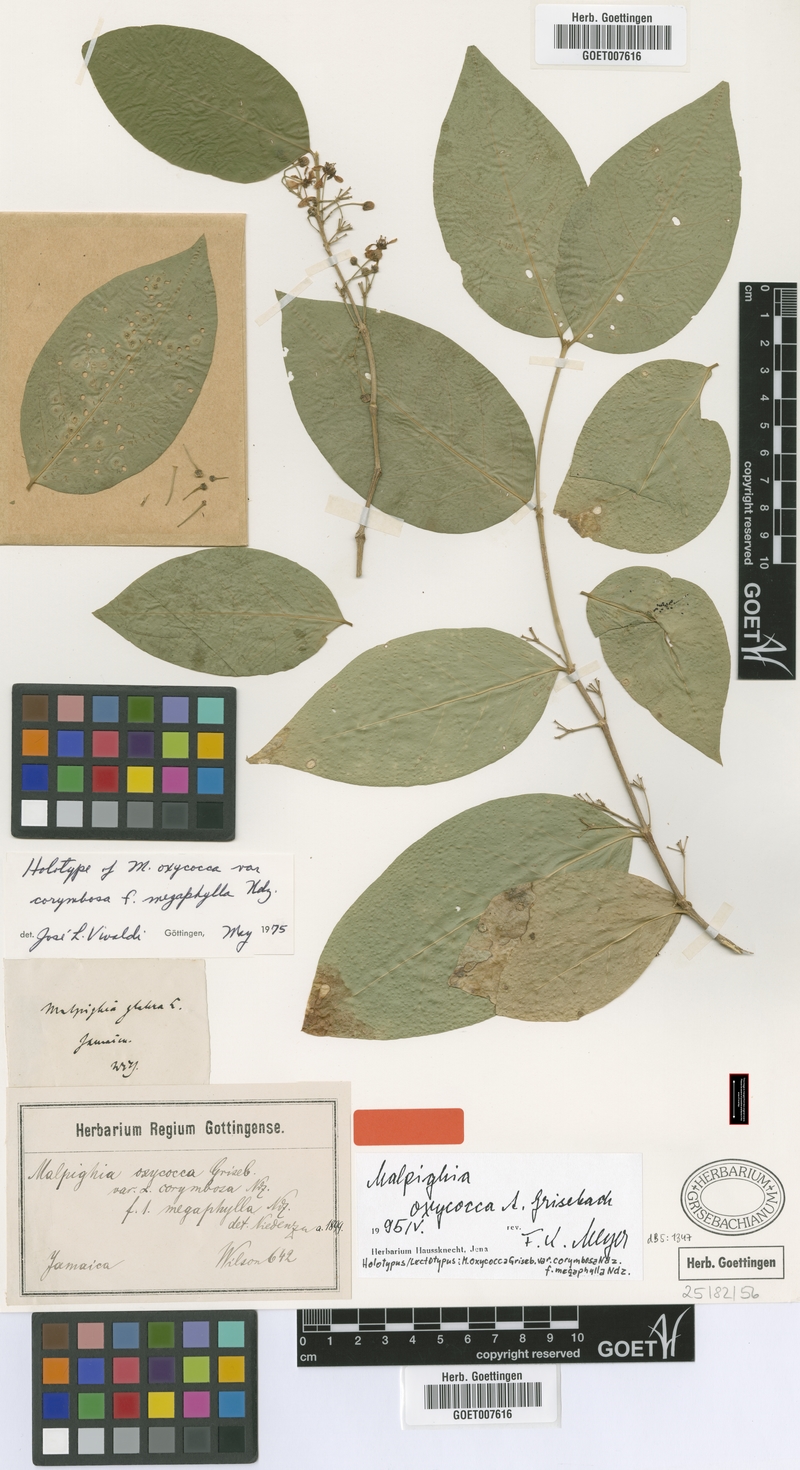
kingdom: Plantae
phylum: Tracheophyta
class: Magnoliopsida
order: Malpighiales
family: Malpighiaceae
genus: Malpighia
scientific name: Malpighia oxycocca
